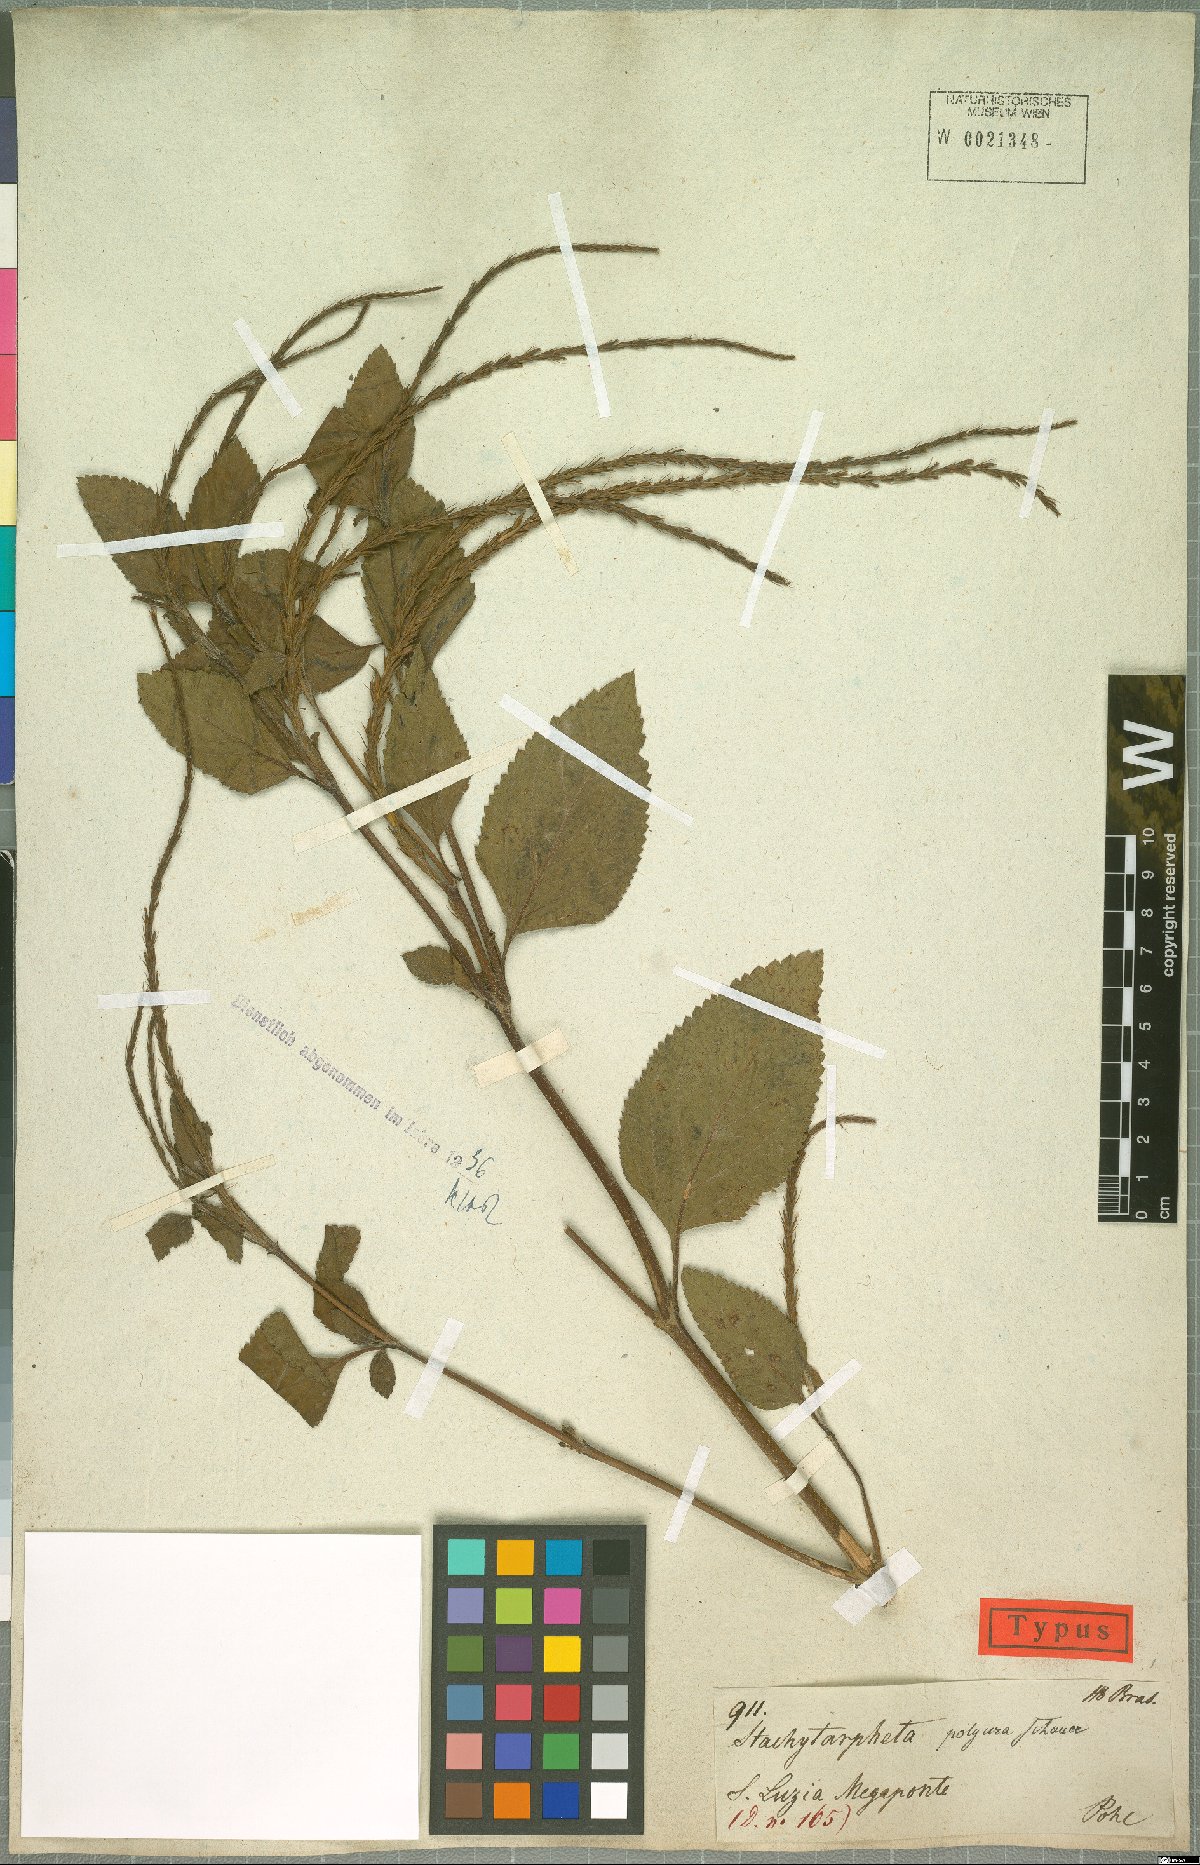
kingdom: Plantae
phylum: Tracheophyta
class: Magnoliopsida
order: Lamiales
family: Verbenaceae
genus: Stachytarpheta
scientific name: Stachytarpheta polyura
